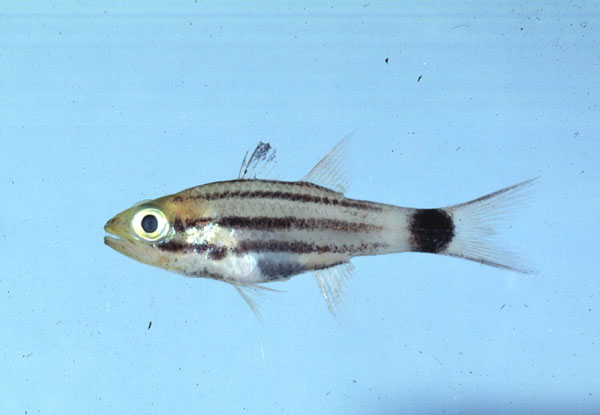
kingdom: Animalia
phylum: Chordata
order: Perciformes
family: Apogonidae
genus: Cheilodipterus
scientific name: Cheilodipterus macrodon
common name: Eight-lined cardinalfish
